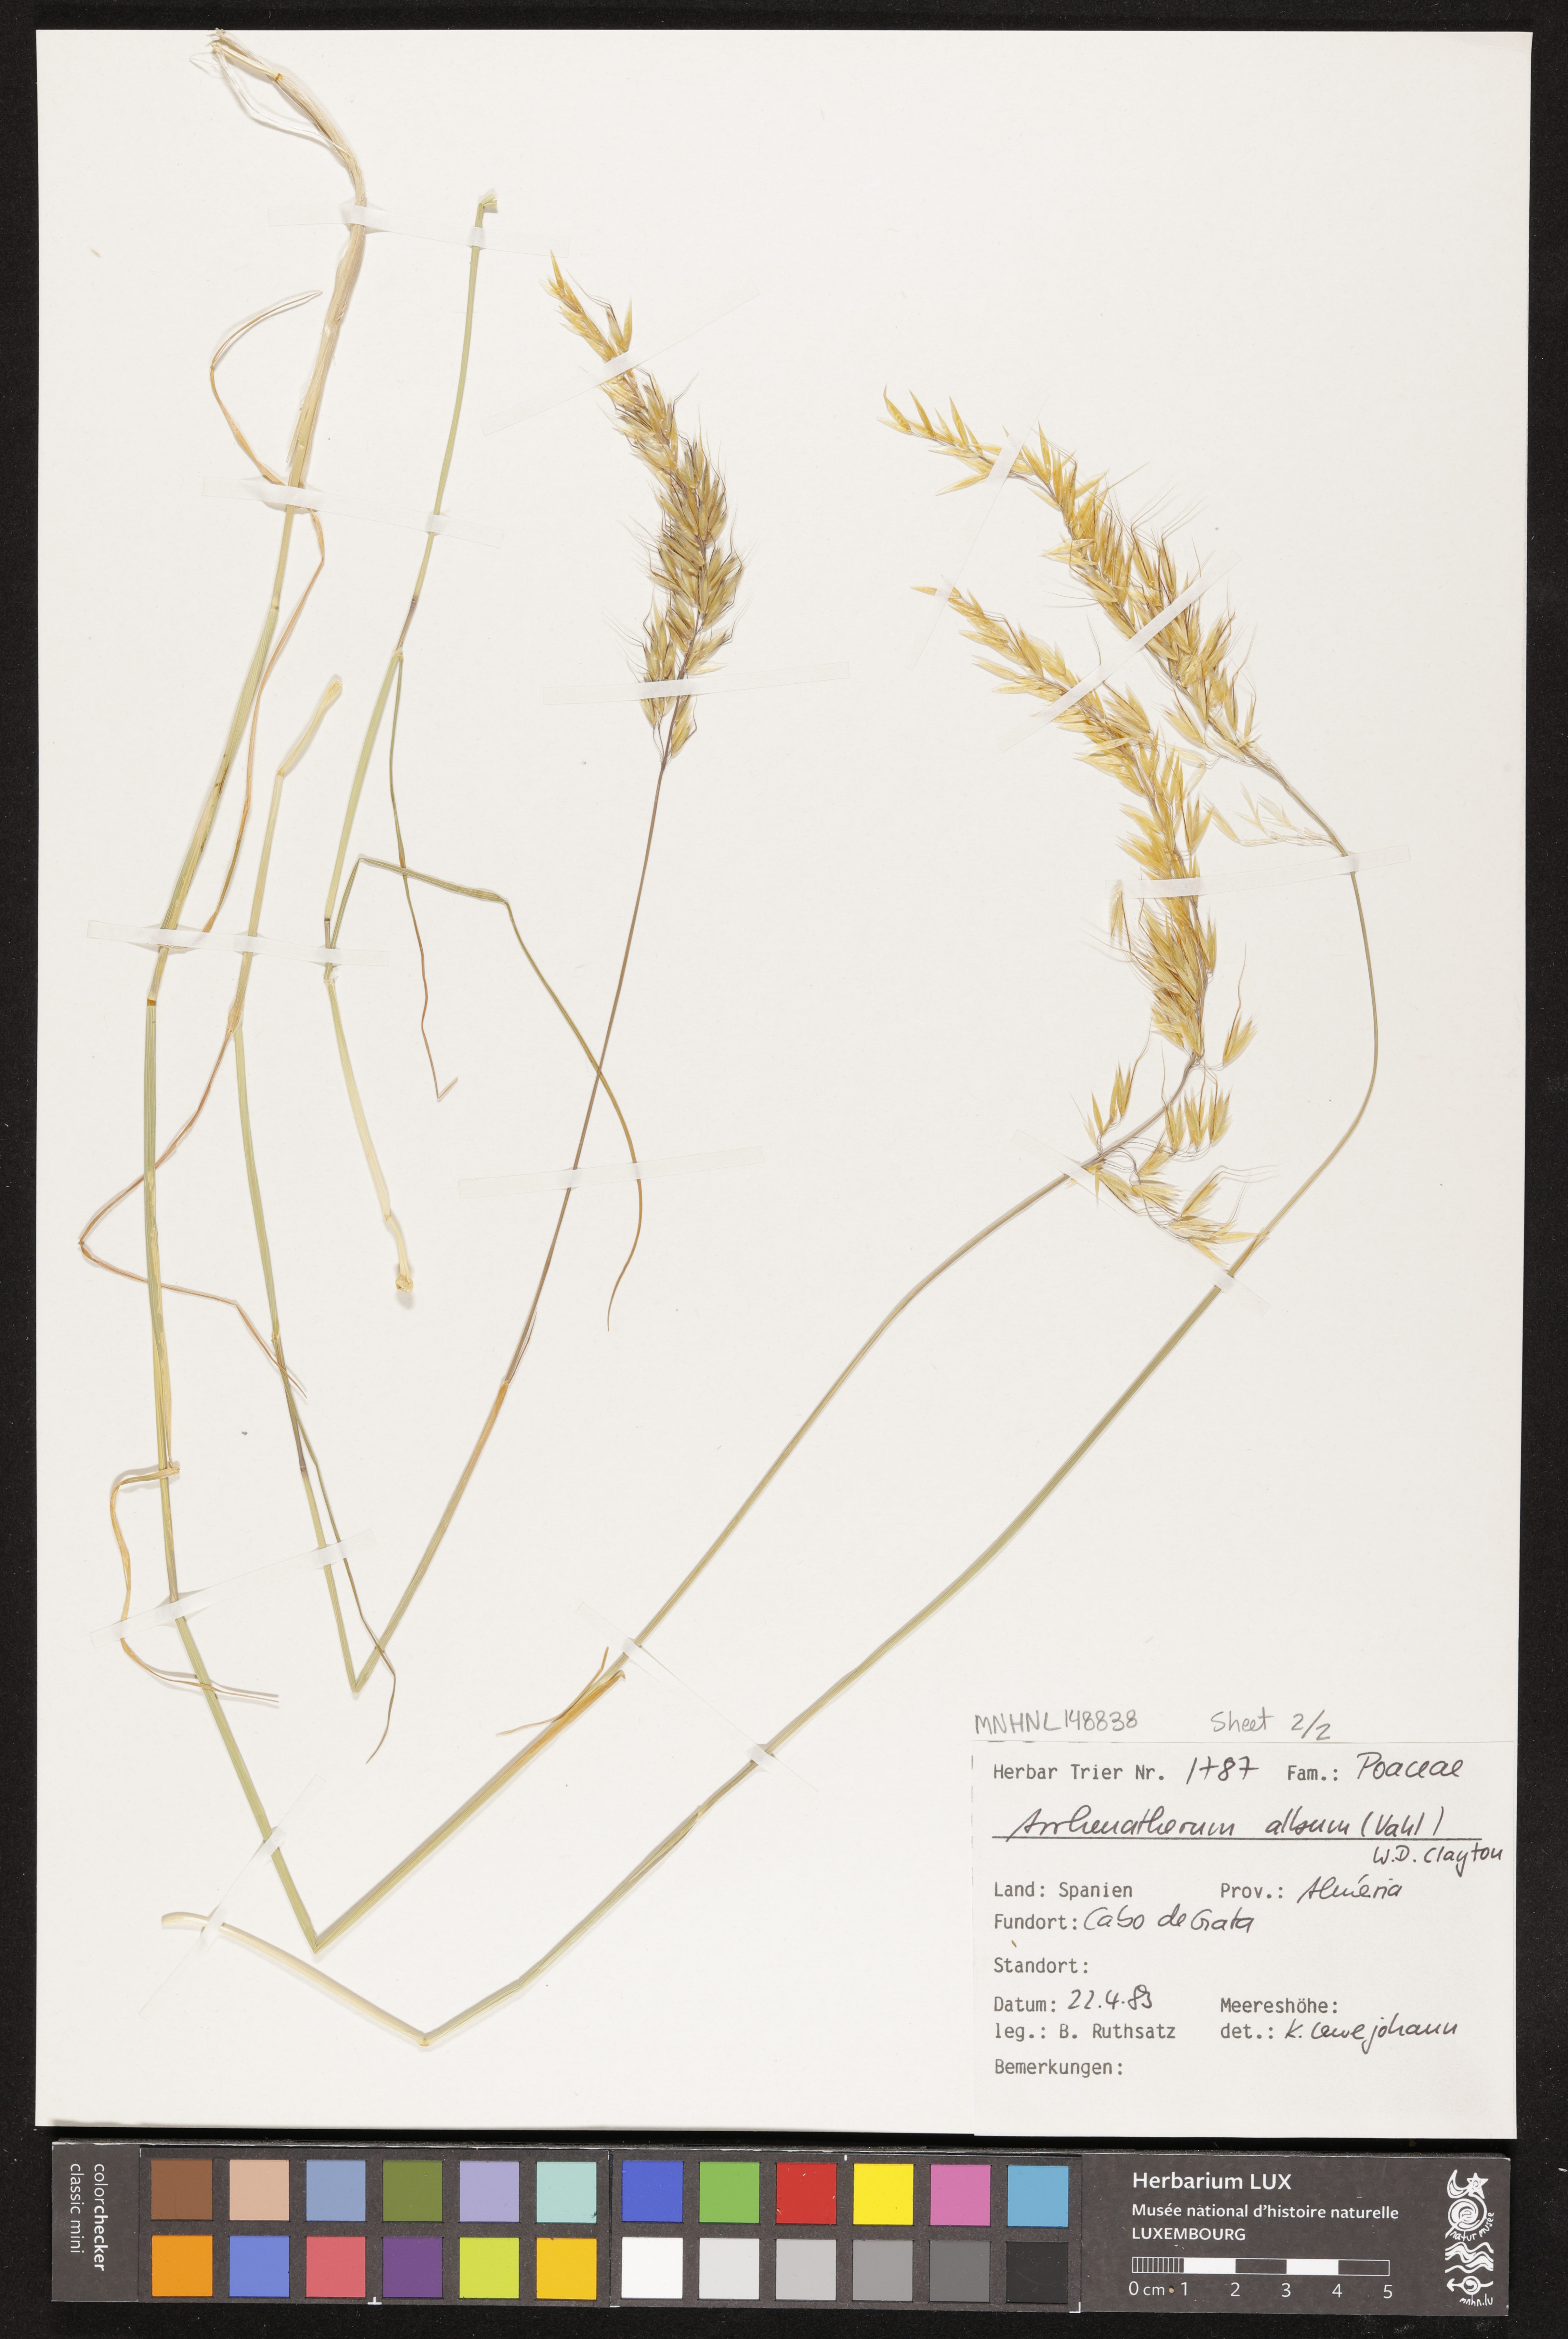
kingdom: Plantae
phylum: Tracheophyta
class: Liliopsida
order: Poales
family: Poaceae
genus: Arrhenatherum
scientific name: Arrhenatherum album
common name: Tall oat grass
